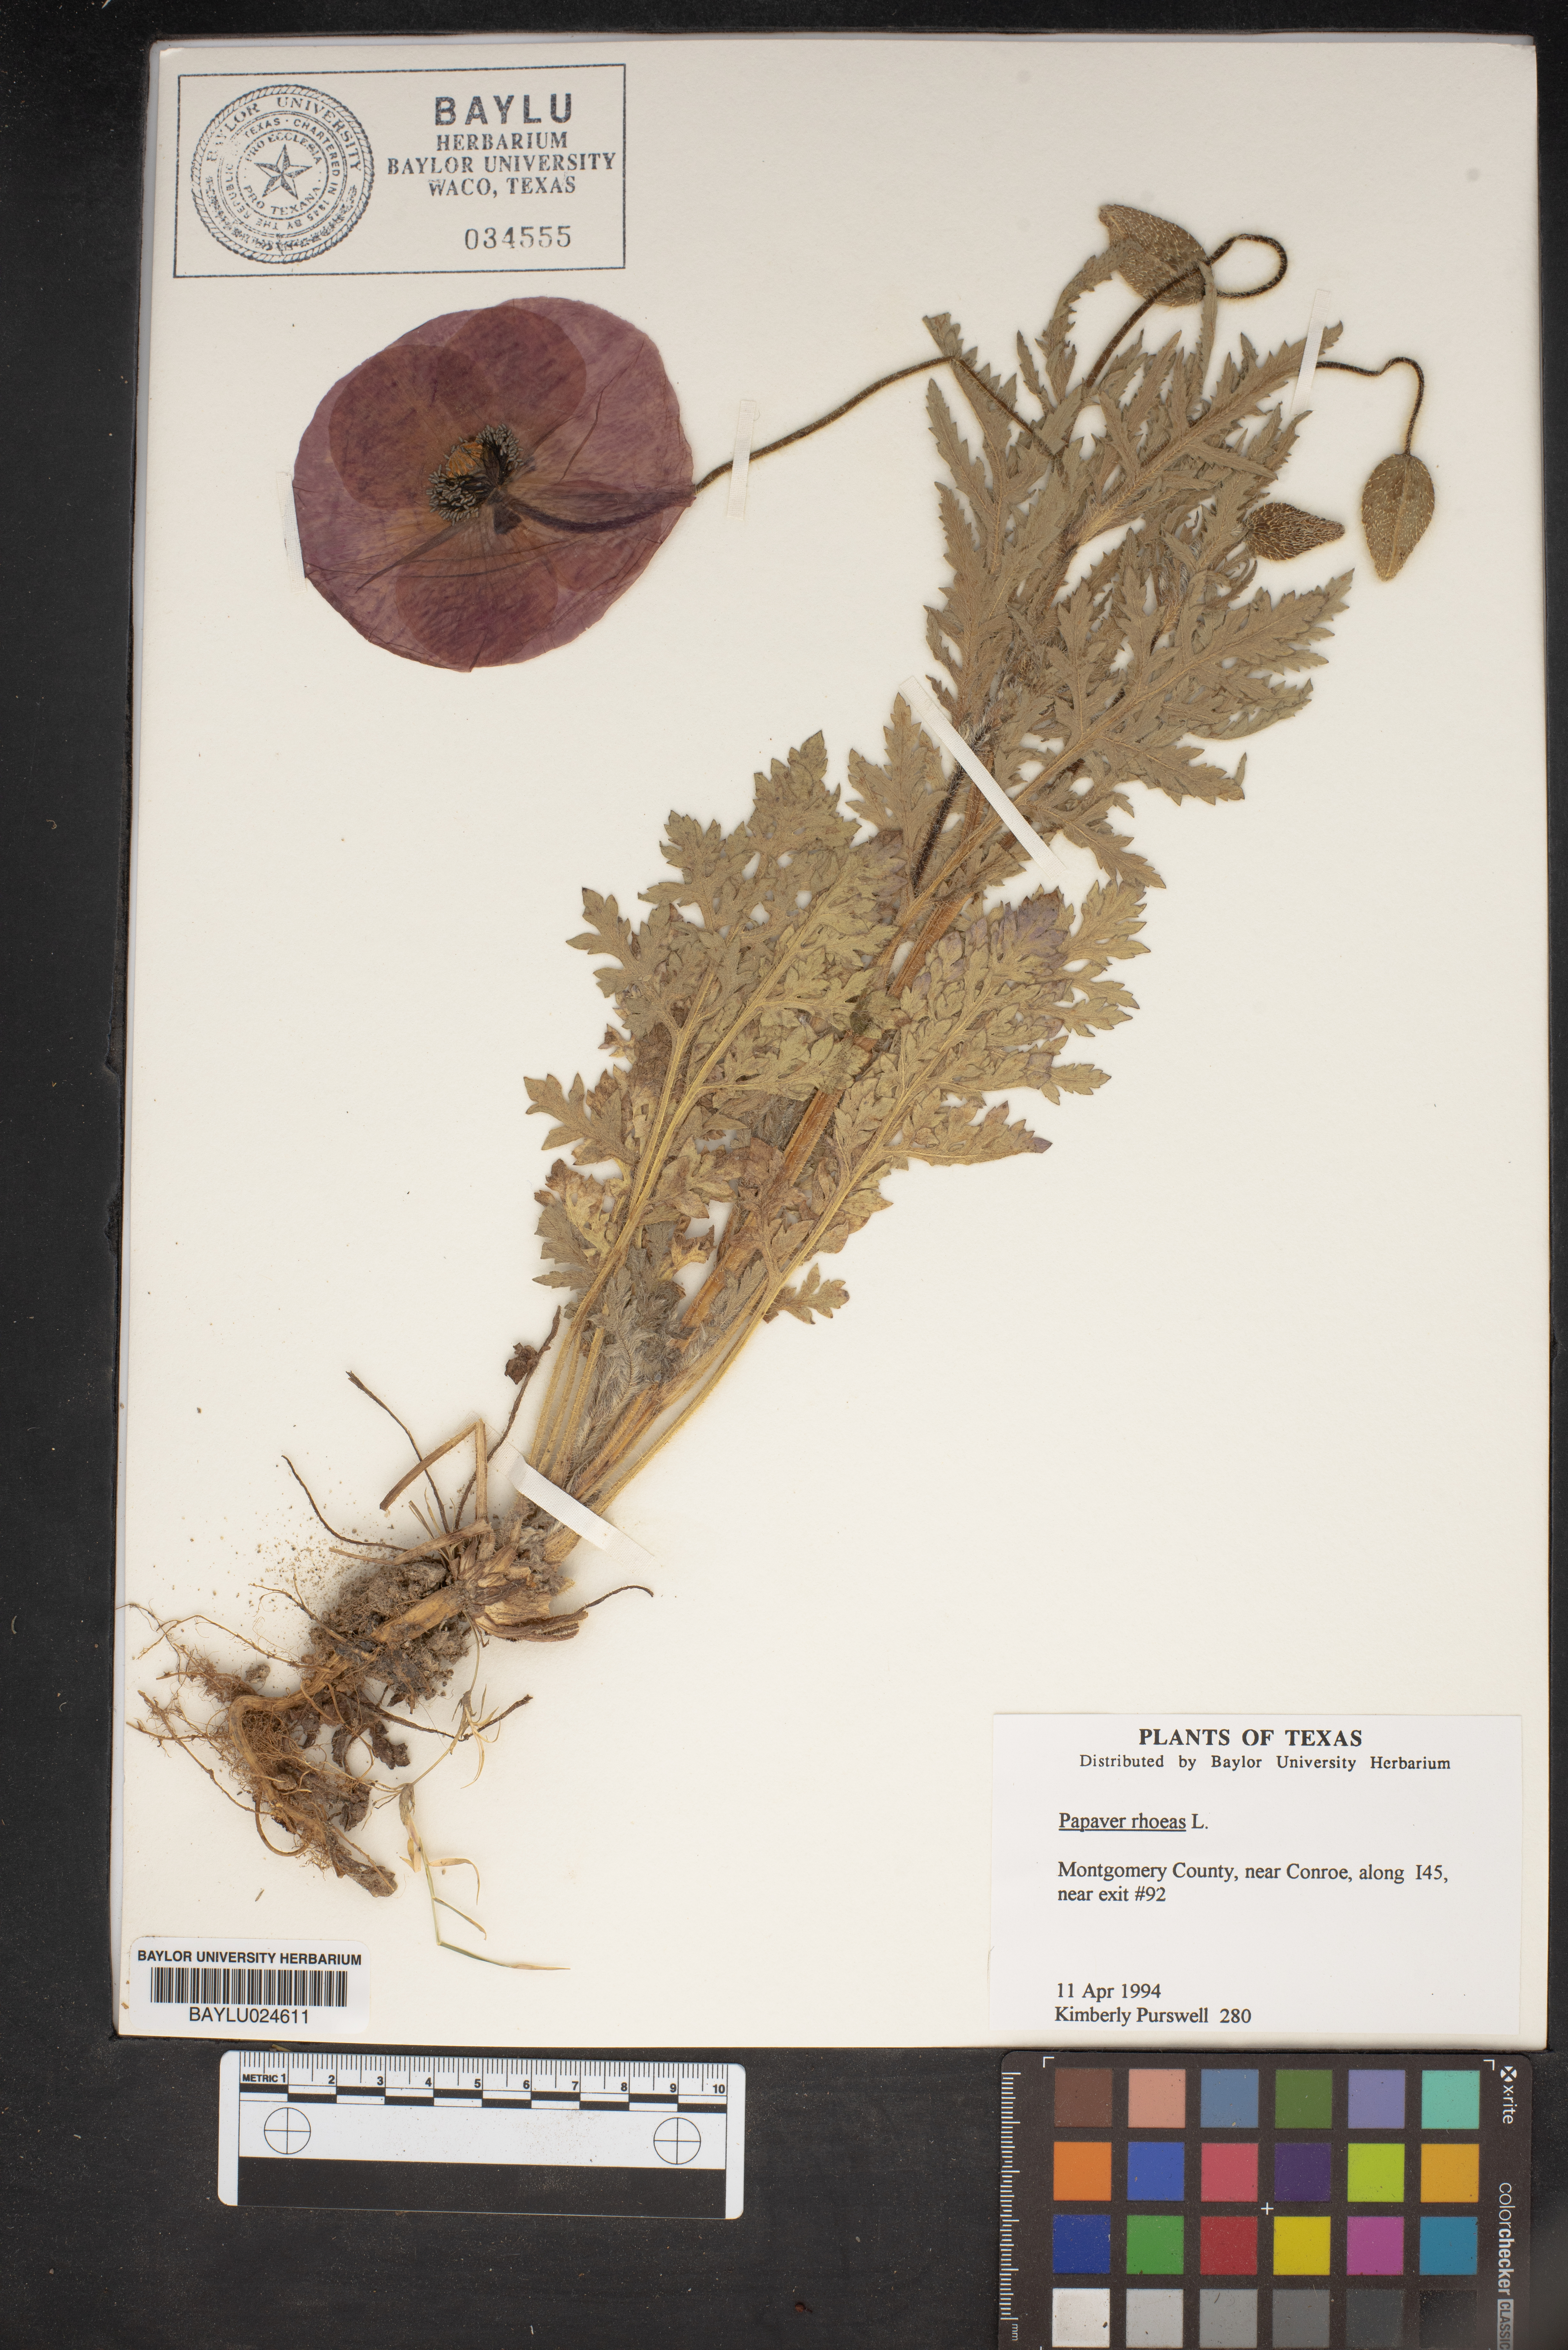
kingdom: Plantae
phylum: Tracheophyta
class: Magnoliopsida
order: Ranunculales
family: Papaveraceae
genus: Papaver
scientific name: Papaver rhoeas
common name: Corn poppy
